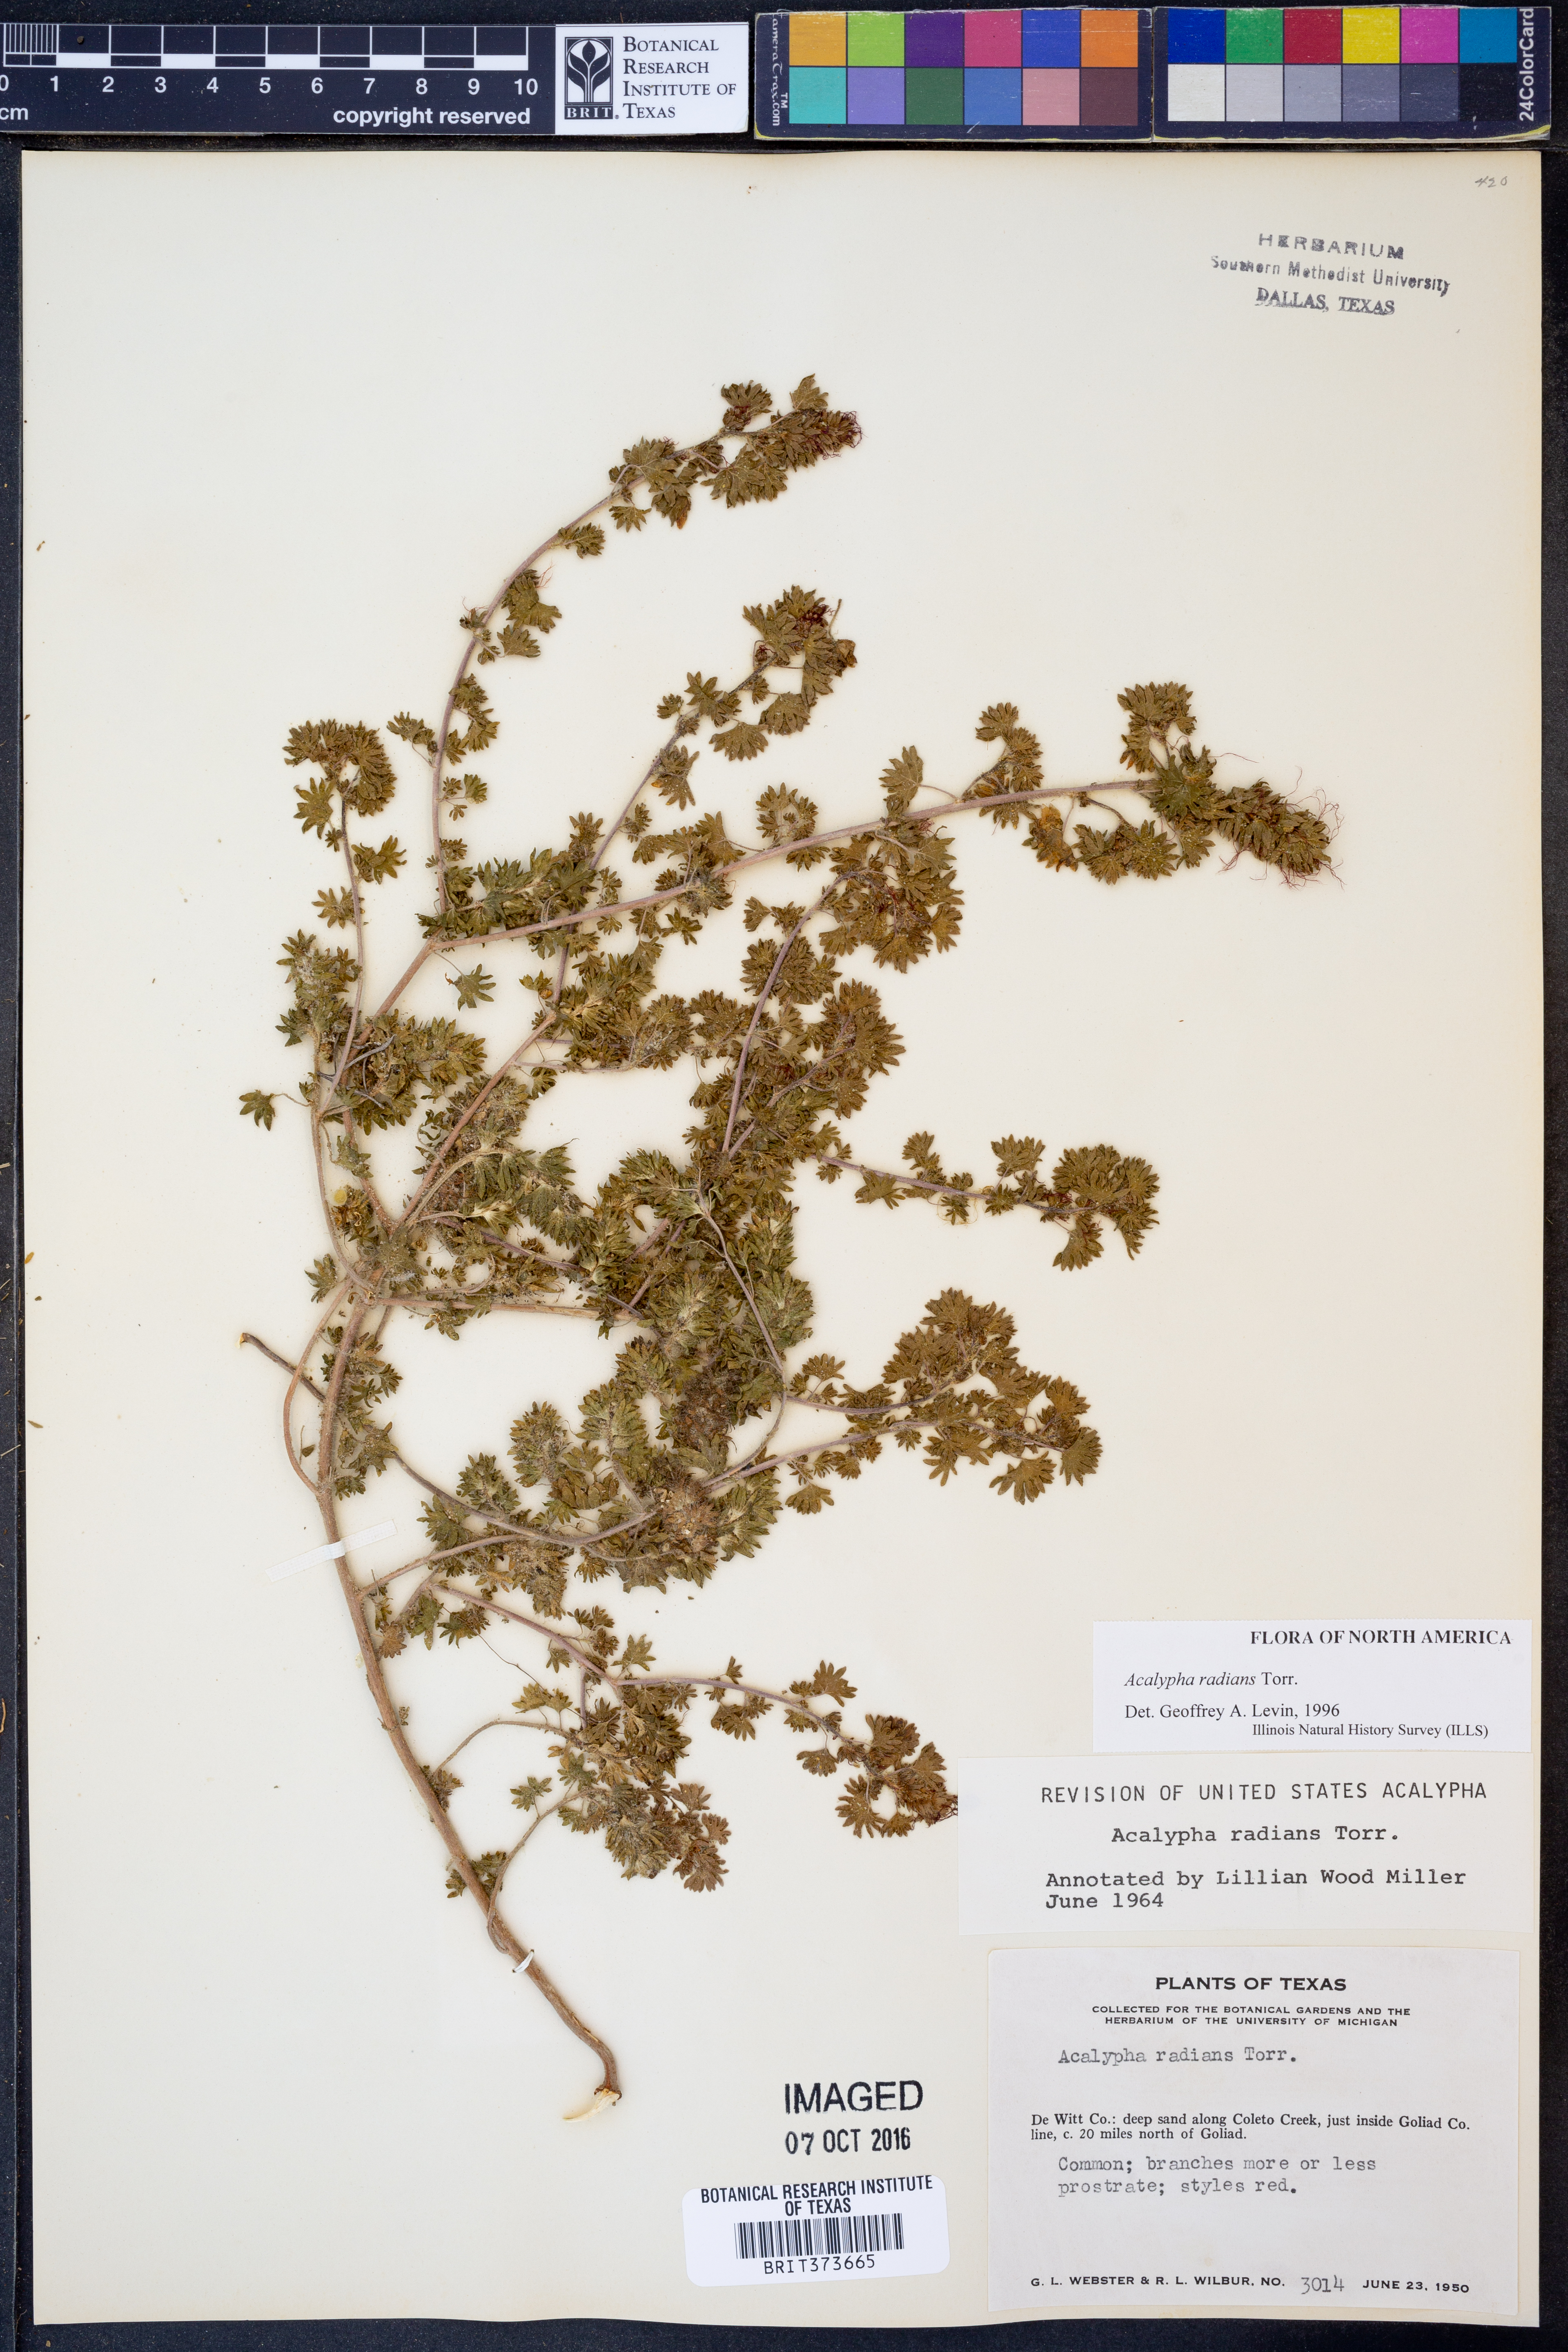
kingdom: Plantae
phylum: Tracheophyta
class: Magnoliopsida
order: Malpighiales
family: Euphorbiaceae
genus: Acalypha
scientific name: Acalypha radians
